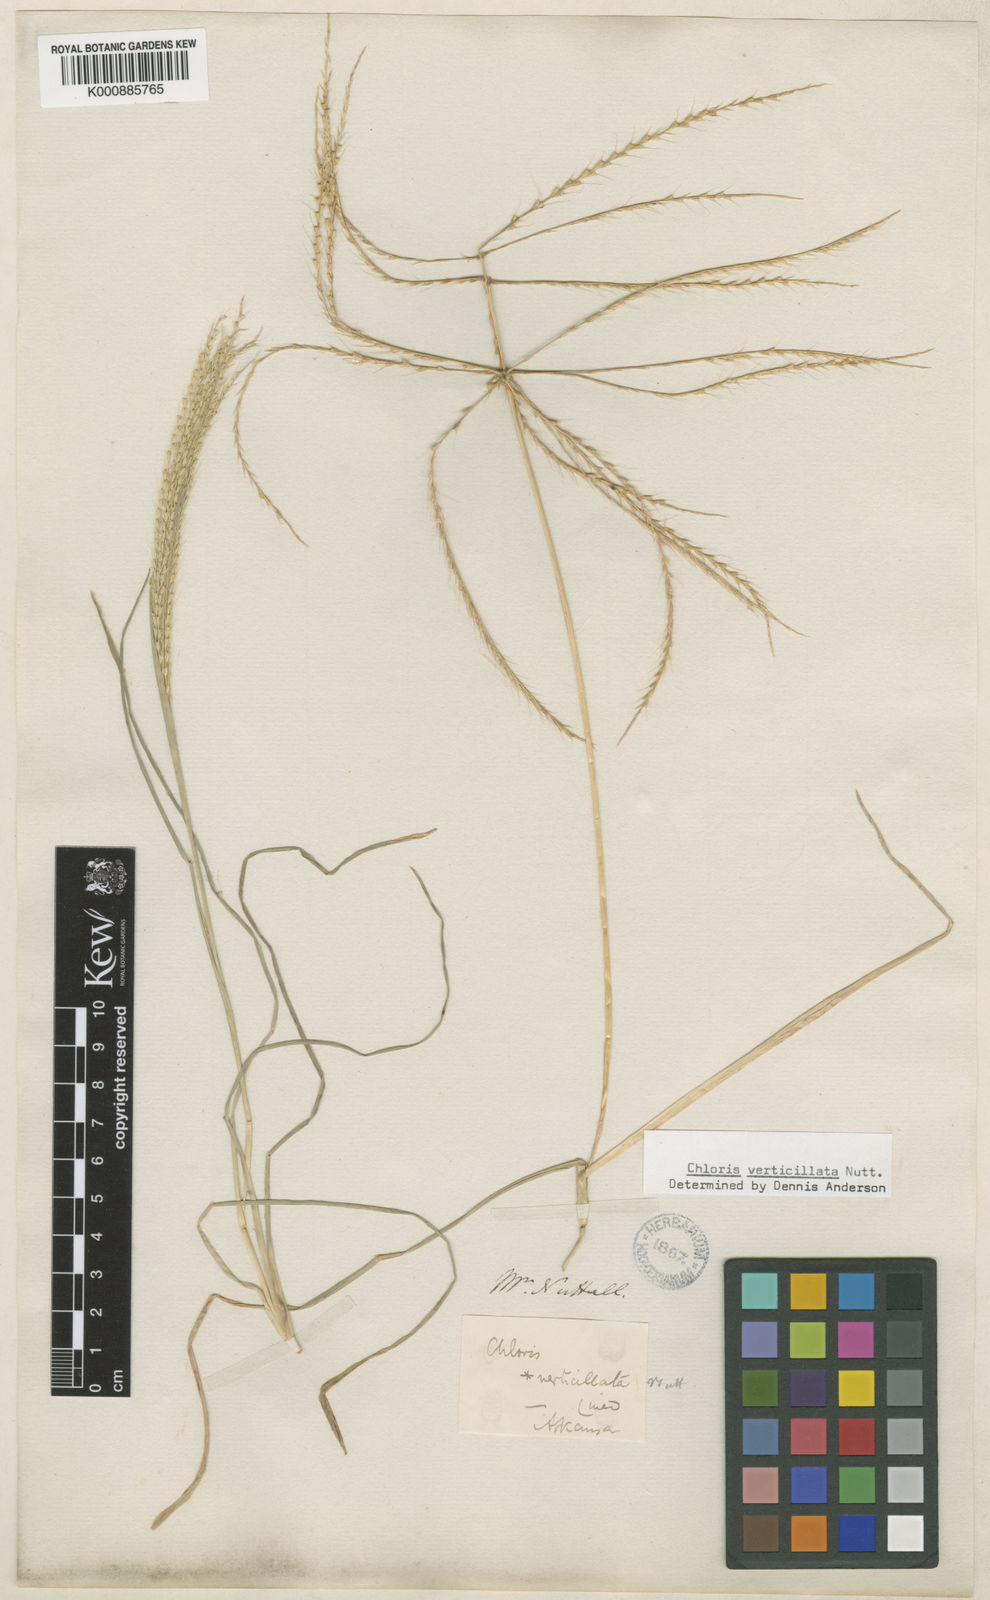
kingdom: Plantae
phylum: Tracheophyta
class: Liliopsida
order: Poales
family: Poaceae
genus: Chloris
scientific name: Chloris verticillata
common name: Tumble windmill grass
